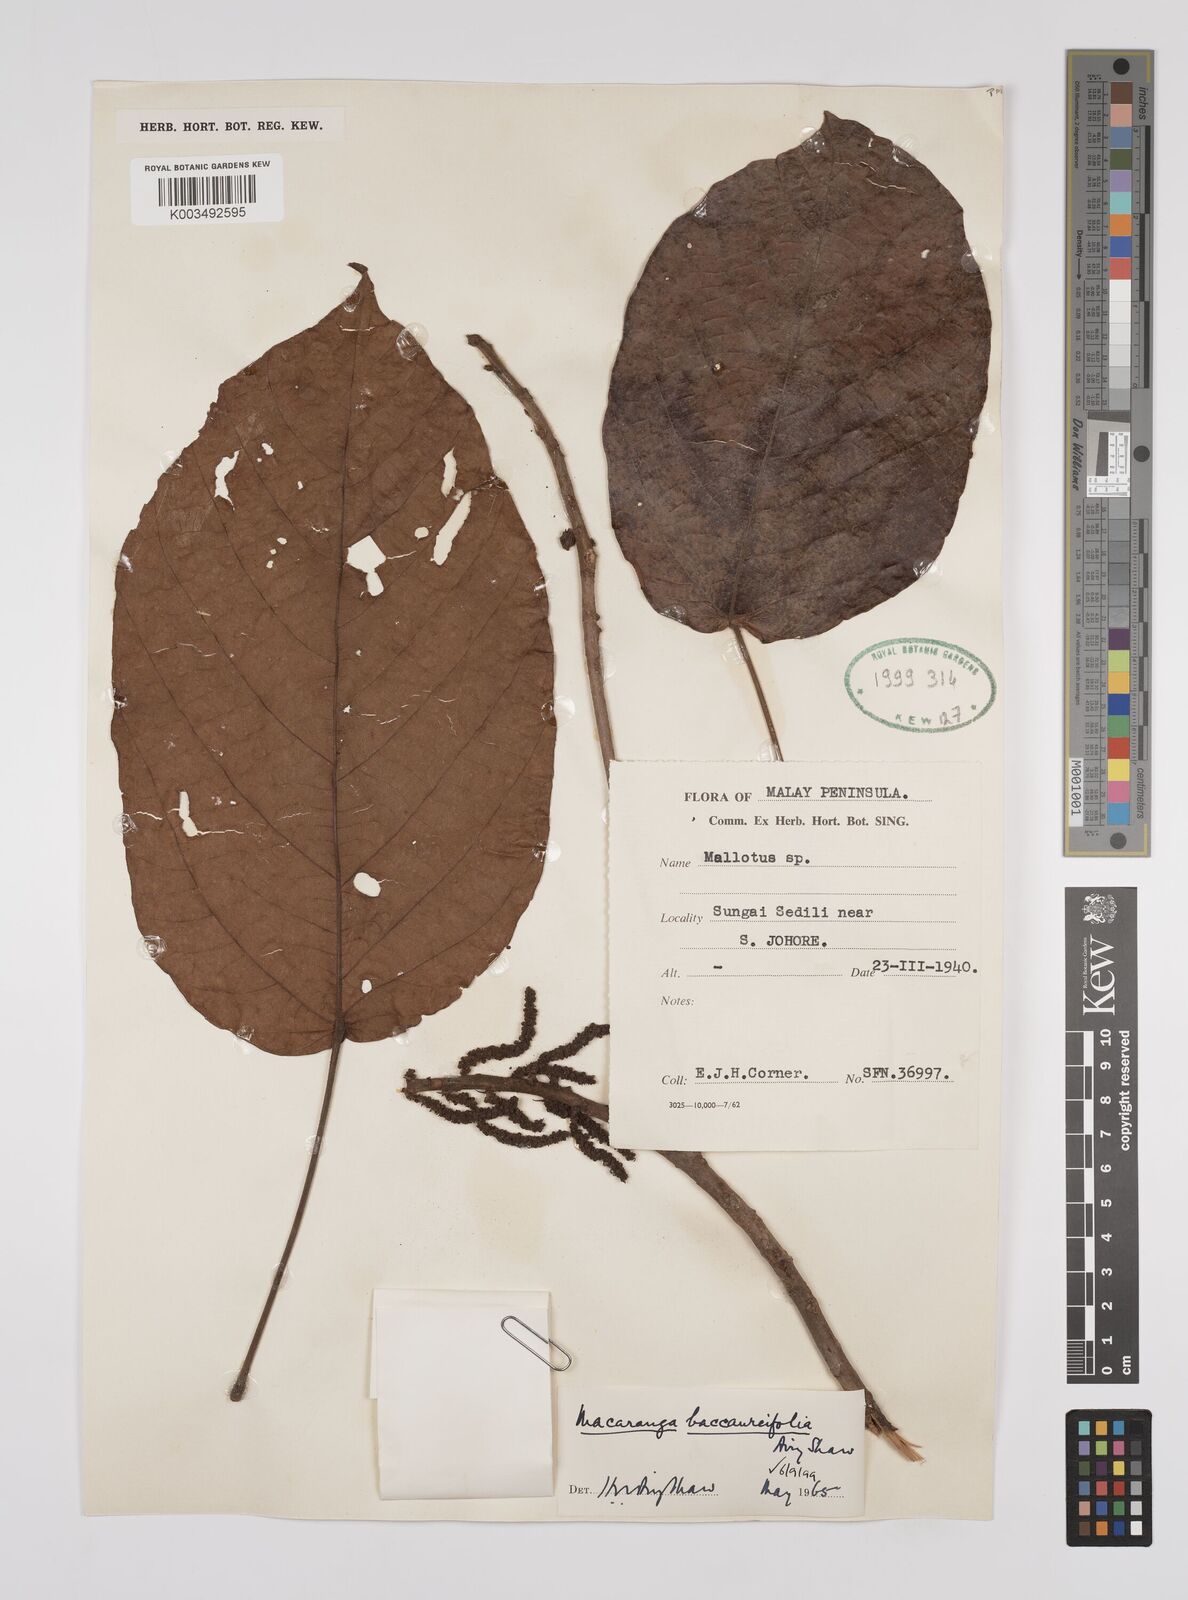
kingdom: Plantae
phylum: Tracheophyta
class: Magnoliopsida
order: Malpighiales
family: Euphorbiaceae
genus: Macaranga
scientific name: Macaranga baccaureifolia
